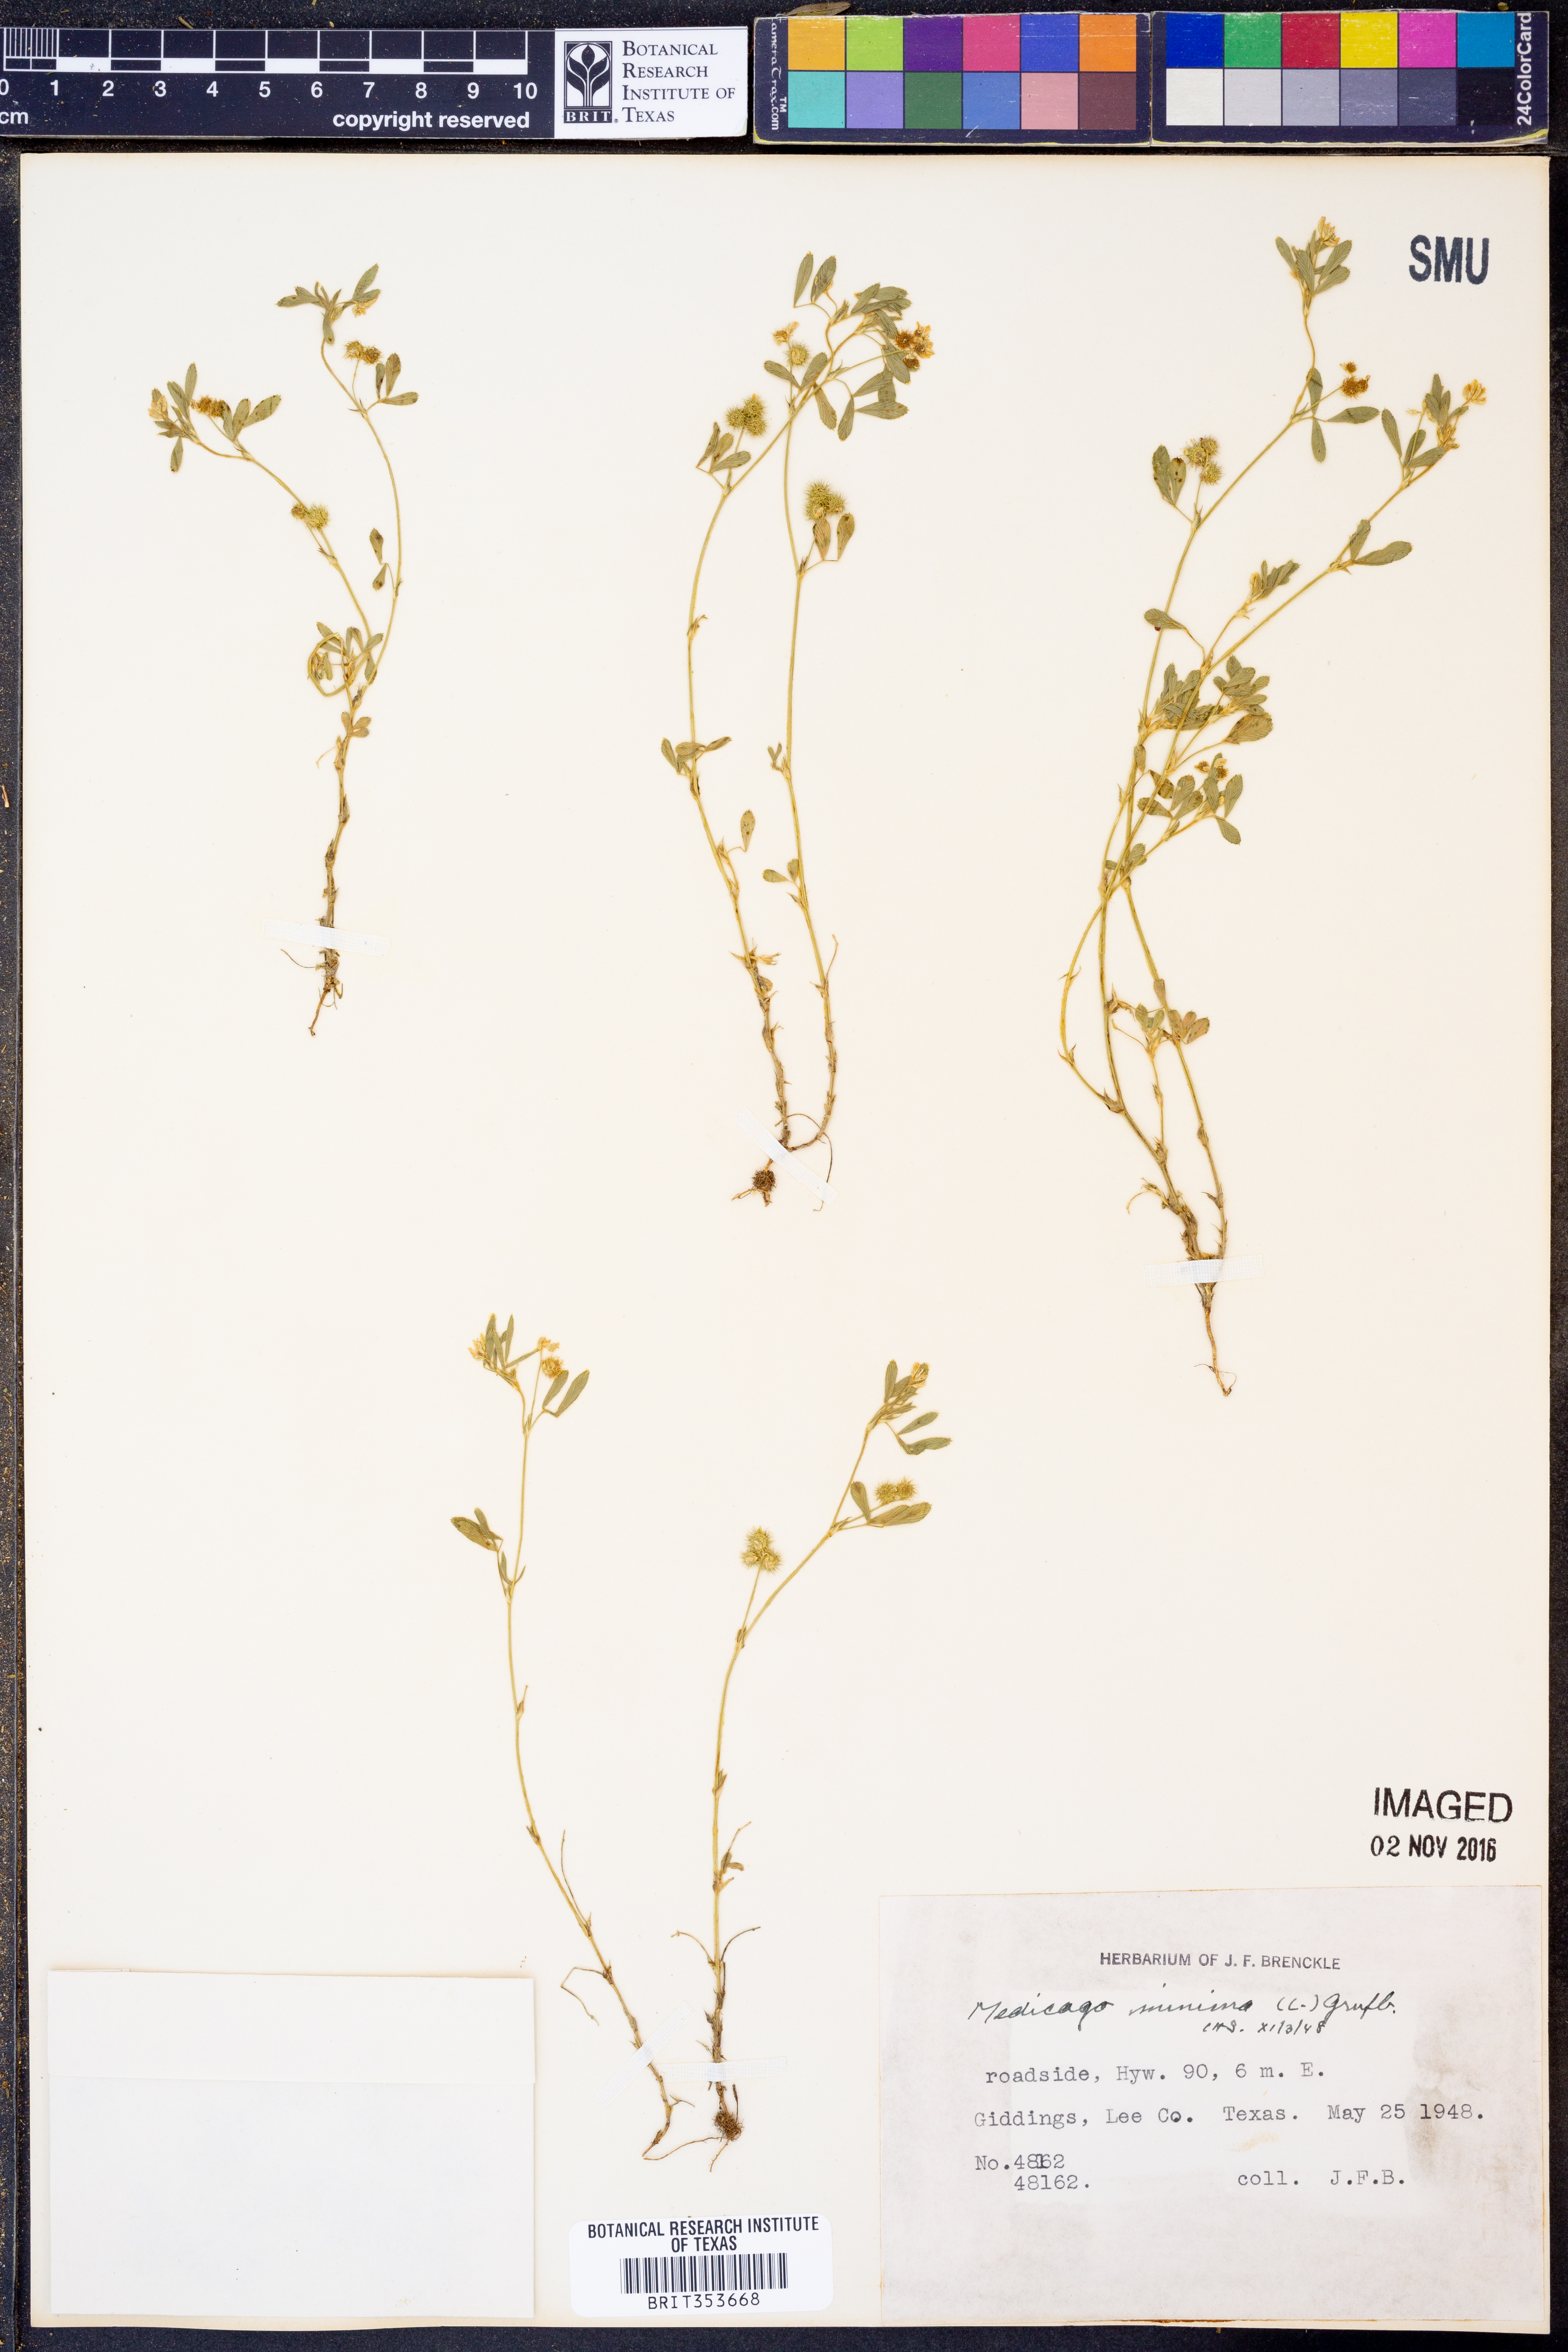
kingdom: Plantae
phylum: Tracheophyta
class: Magnoliopsida
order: Fabales
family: Fabaceae
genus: Medicago
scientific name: Medicago minima
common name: Little bur-clover
